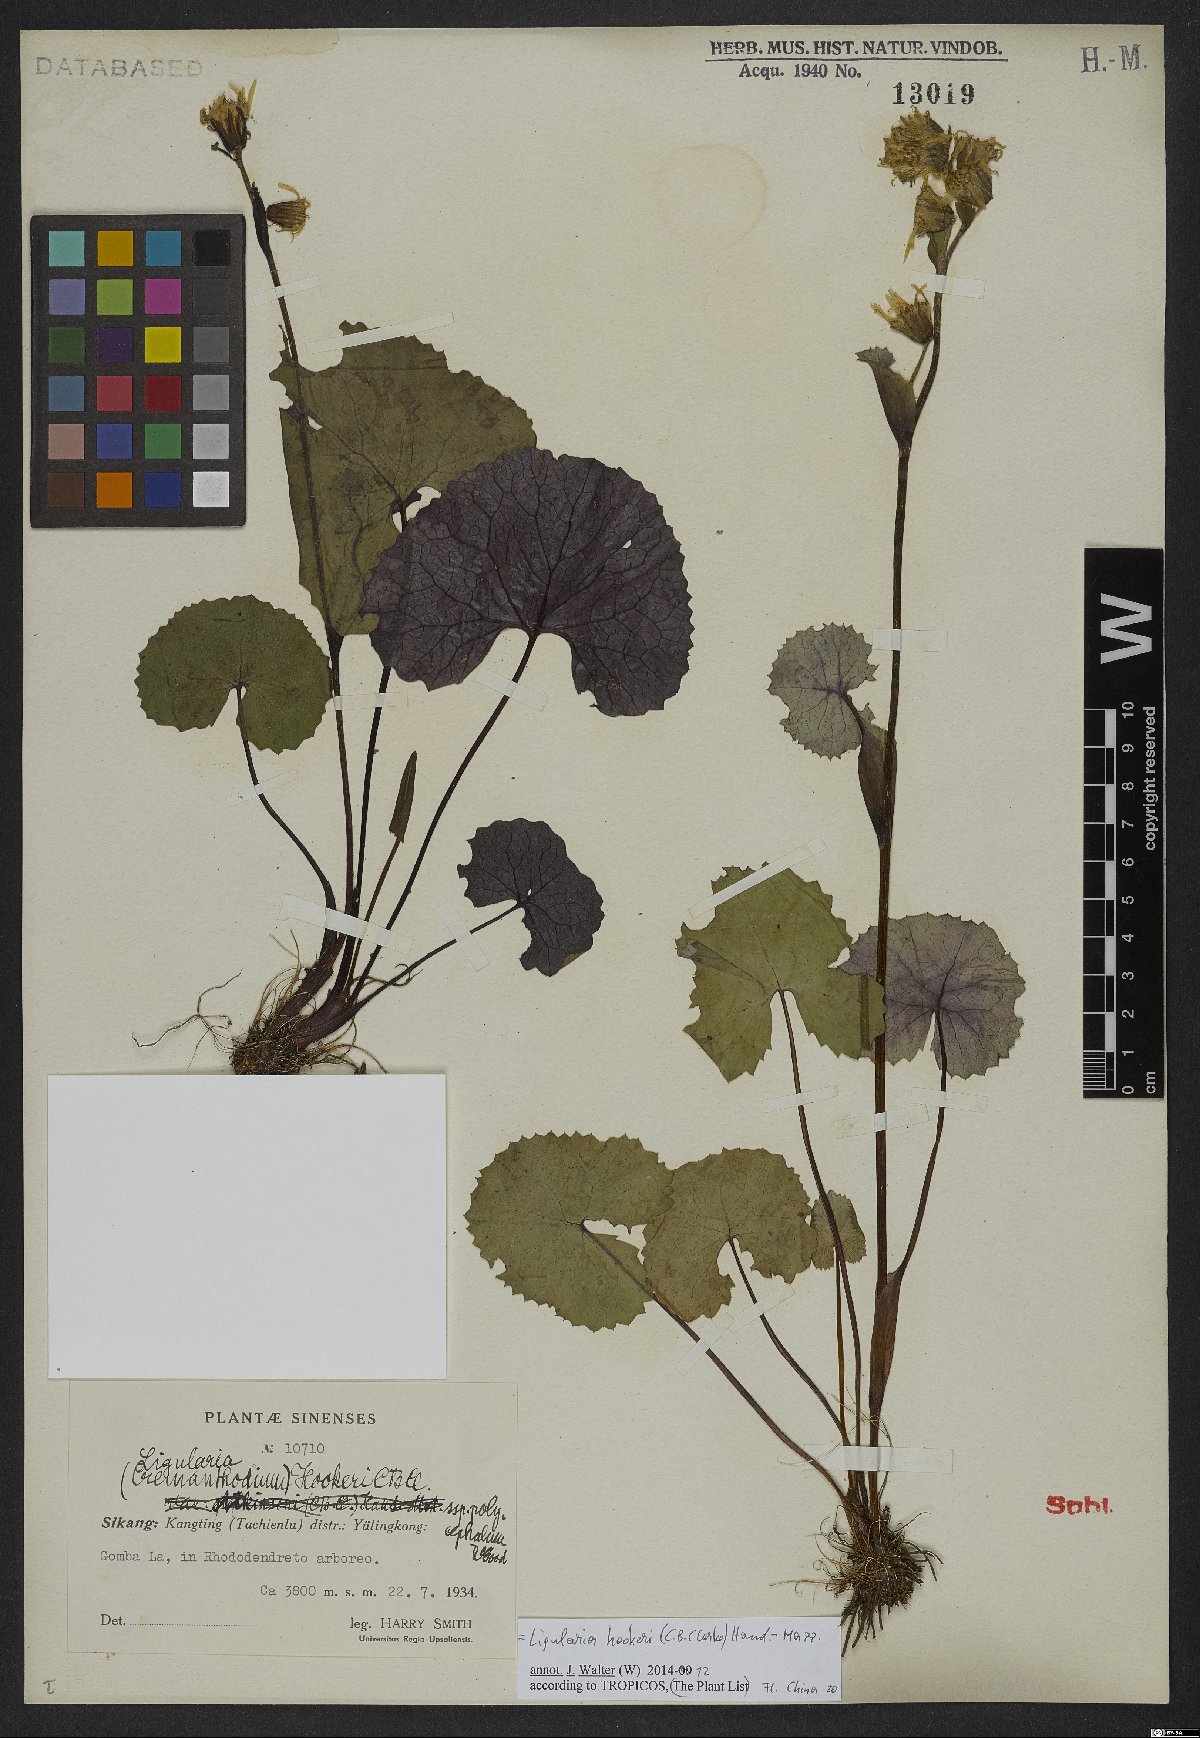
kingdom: Plantae
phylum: Tracheophyta
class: Magnoliopsida
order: Asterales
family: Asteraceae
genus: Ligularia
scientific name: Ligularia hookeri
